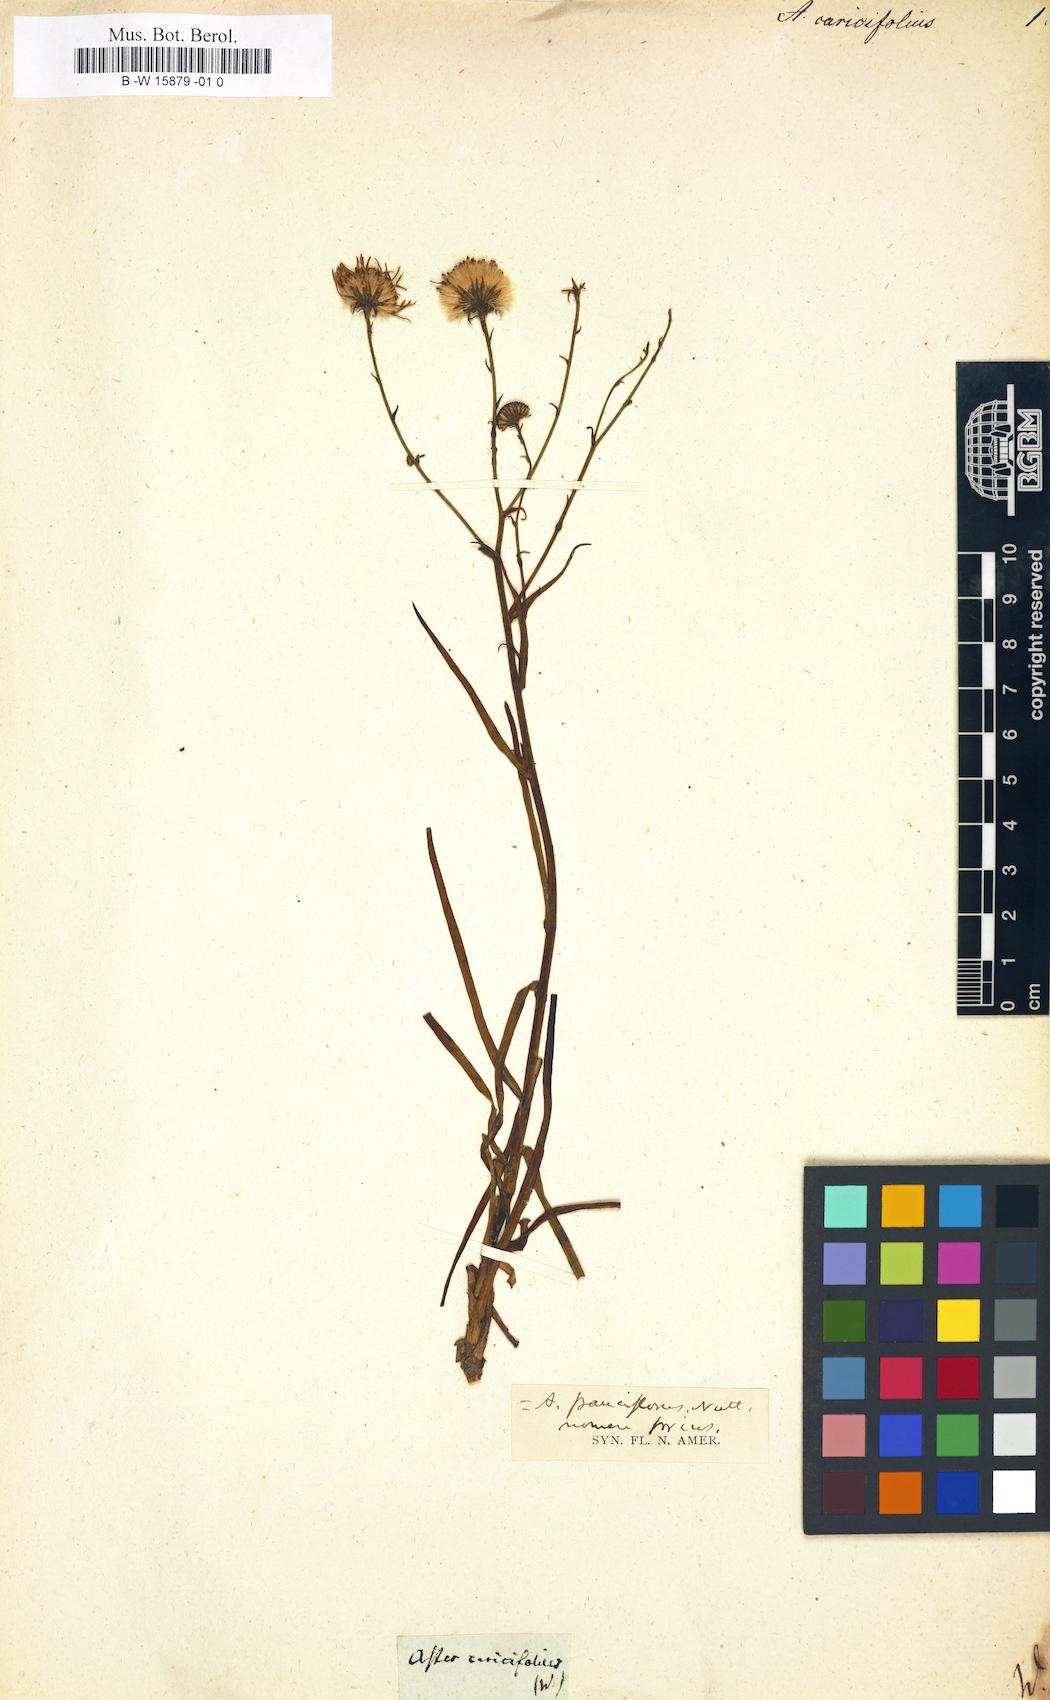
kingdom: Plantae
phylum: Tracheophyta
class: Magnoliopsida
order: Asterales
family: Asteraceae
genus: Almutaster
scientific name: Almutaster pauciflorus
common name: Alkaline aster
